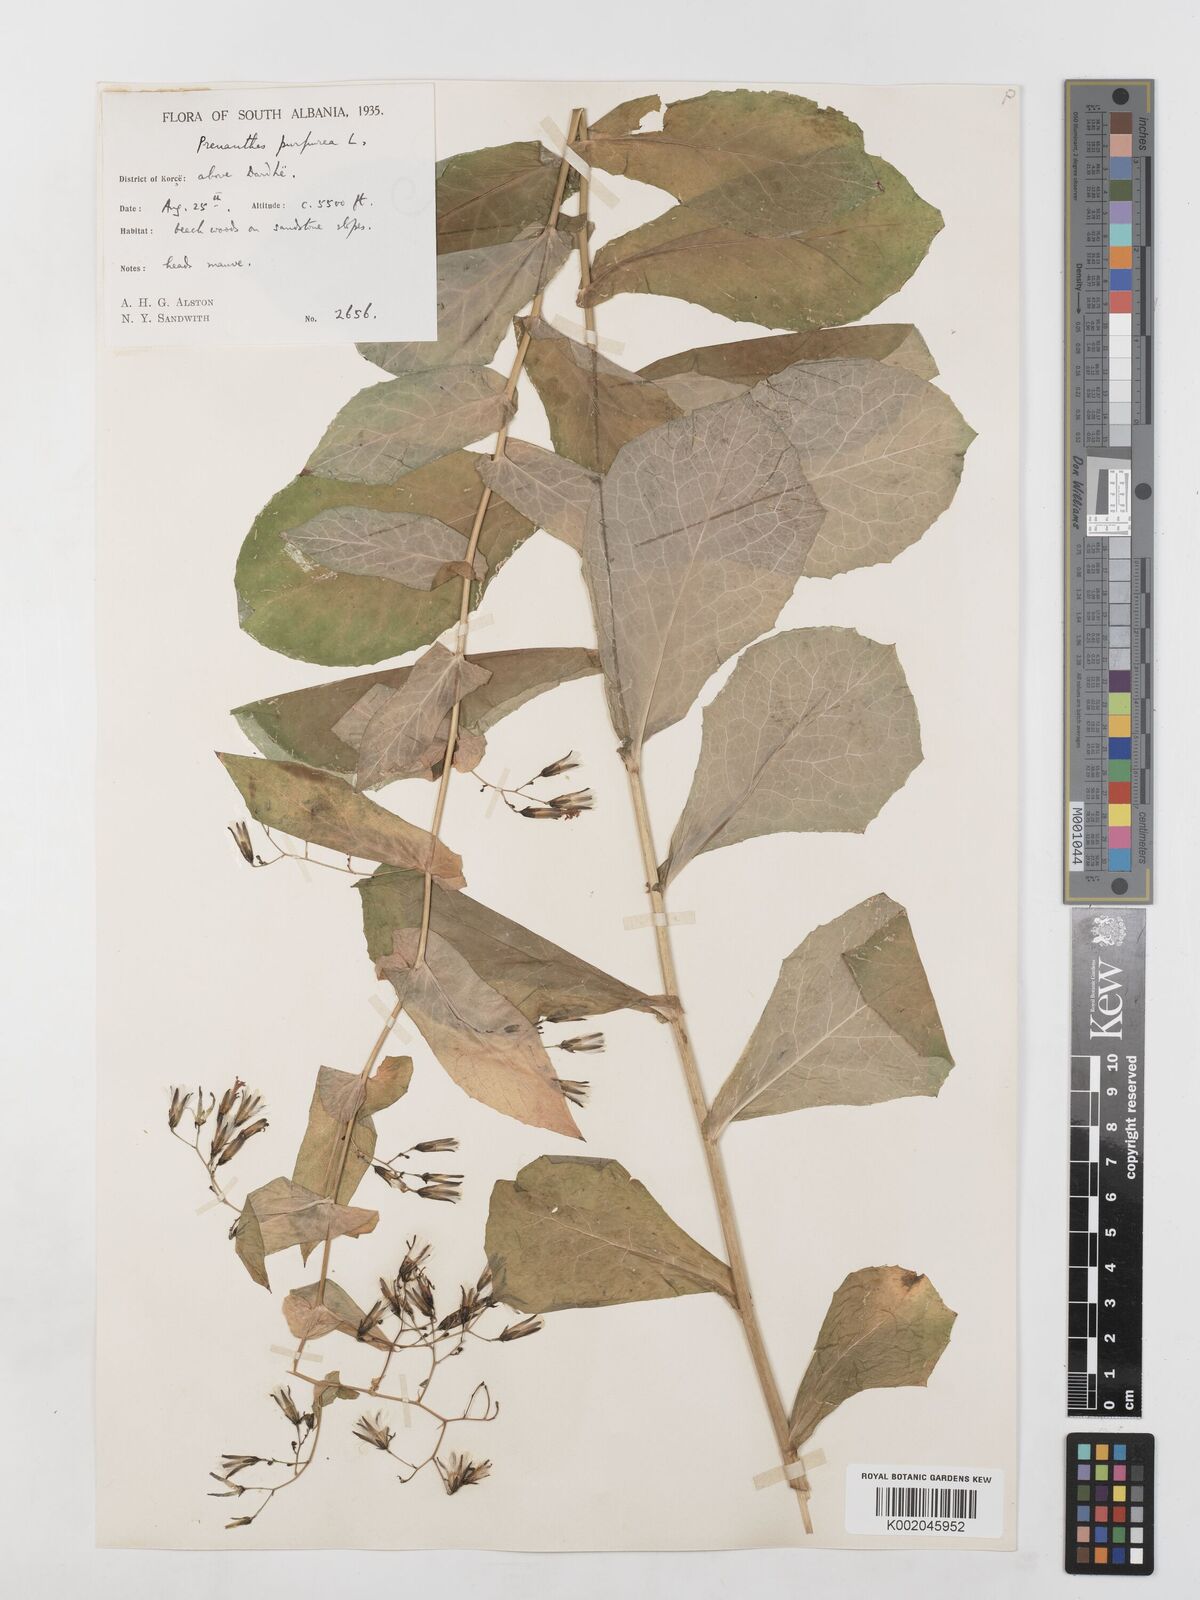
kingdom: Plantae
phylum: Tracheophyta
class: Magnoliopsida
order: Asterales
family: Asteraceae
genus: Prenanthes
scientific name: Prenanthes purpurea
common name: Purple lettuce
